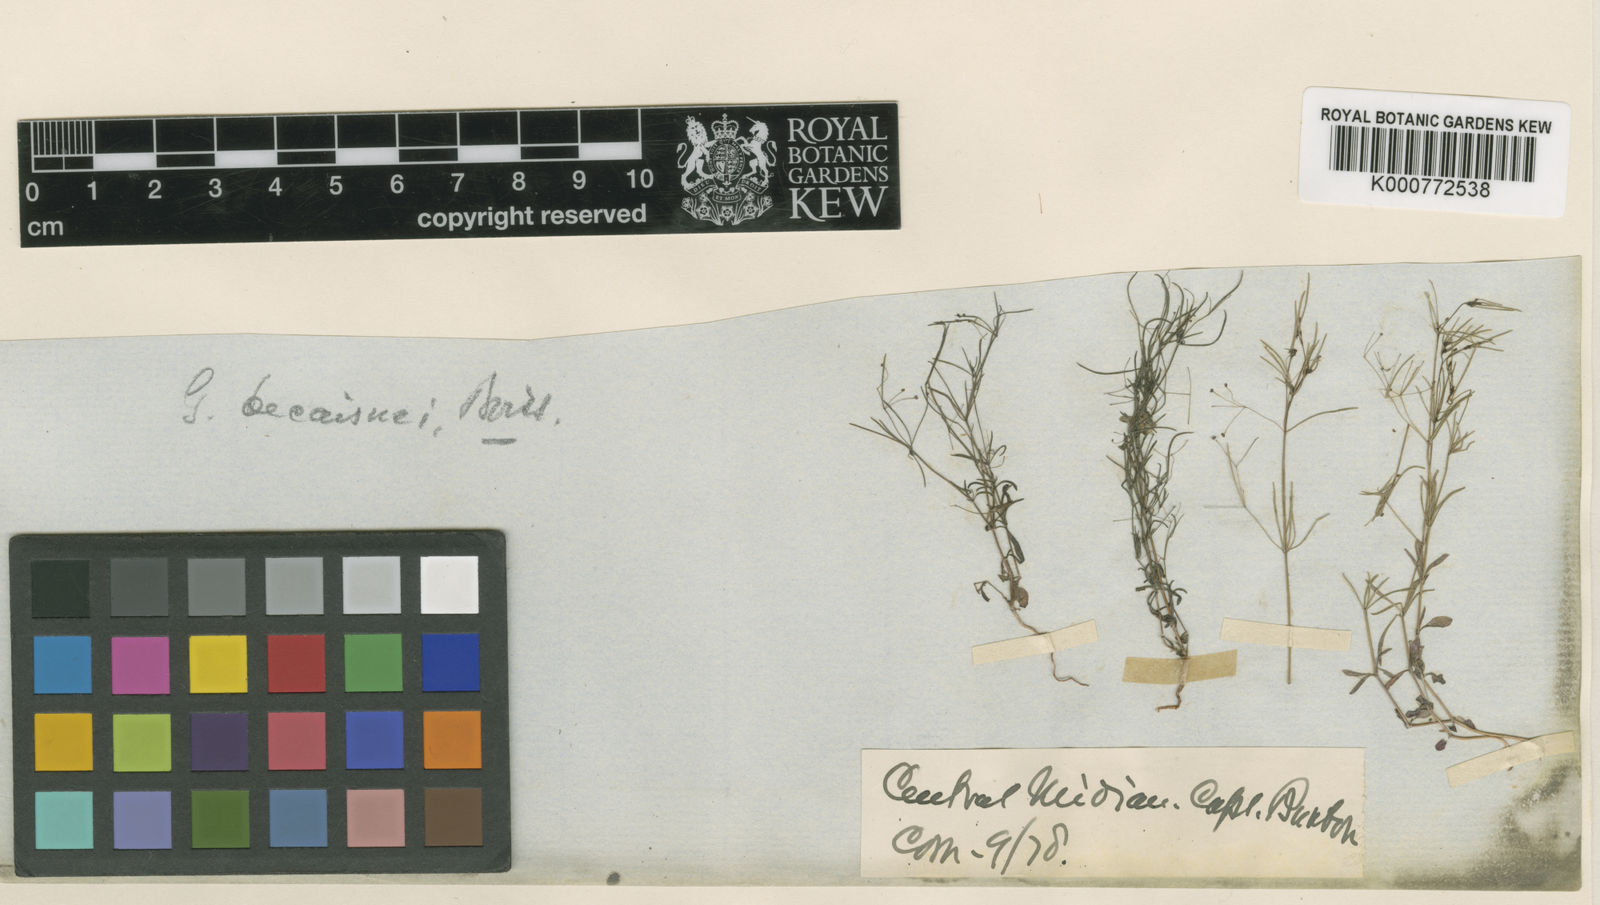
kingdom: Plantae
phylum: Tracheophyta
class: Magnoliopsida
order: Gentianales
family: Rubiaceae
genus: Galium
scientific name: Galium setaceum
